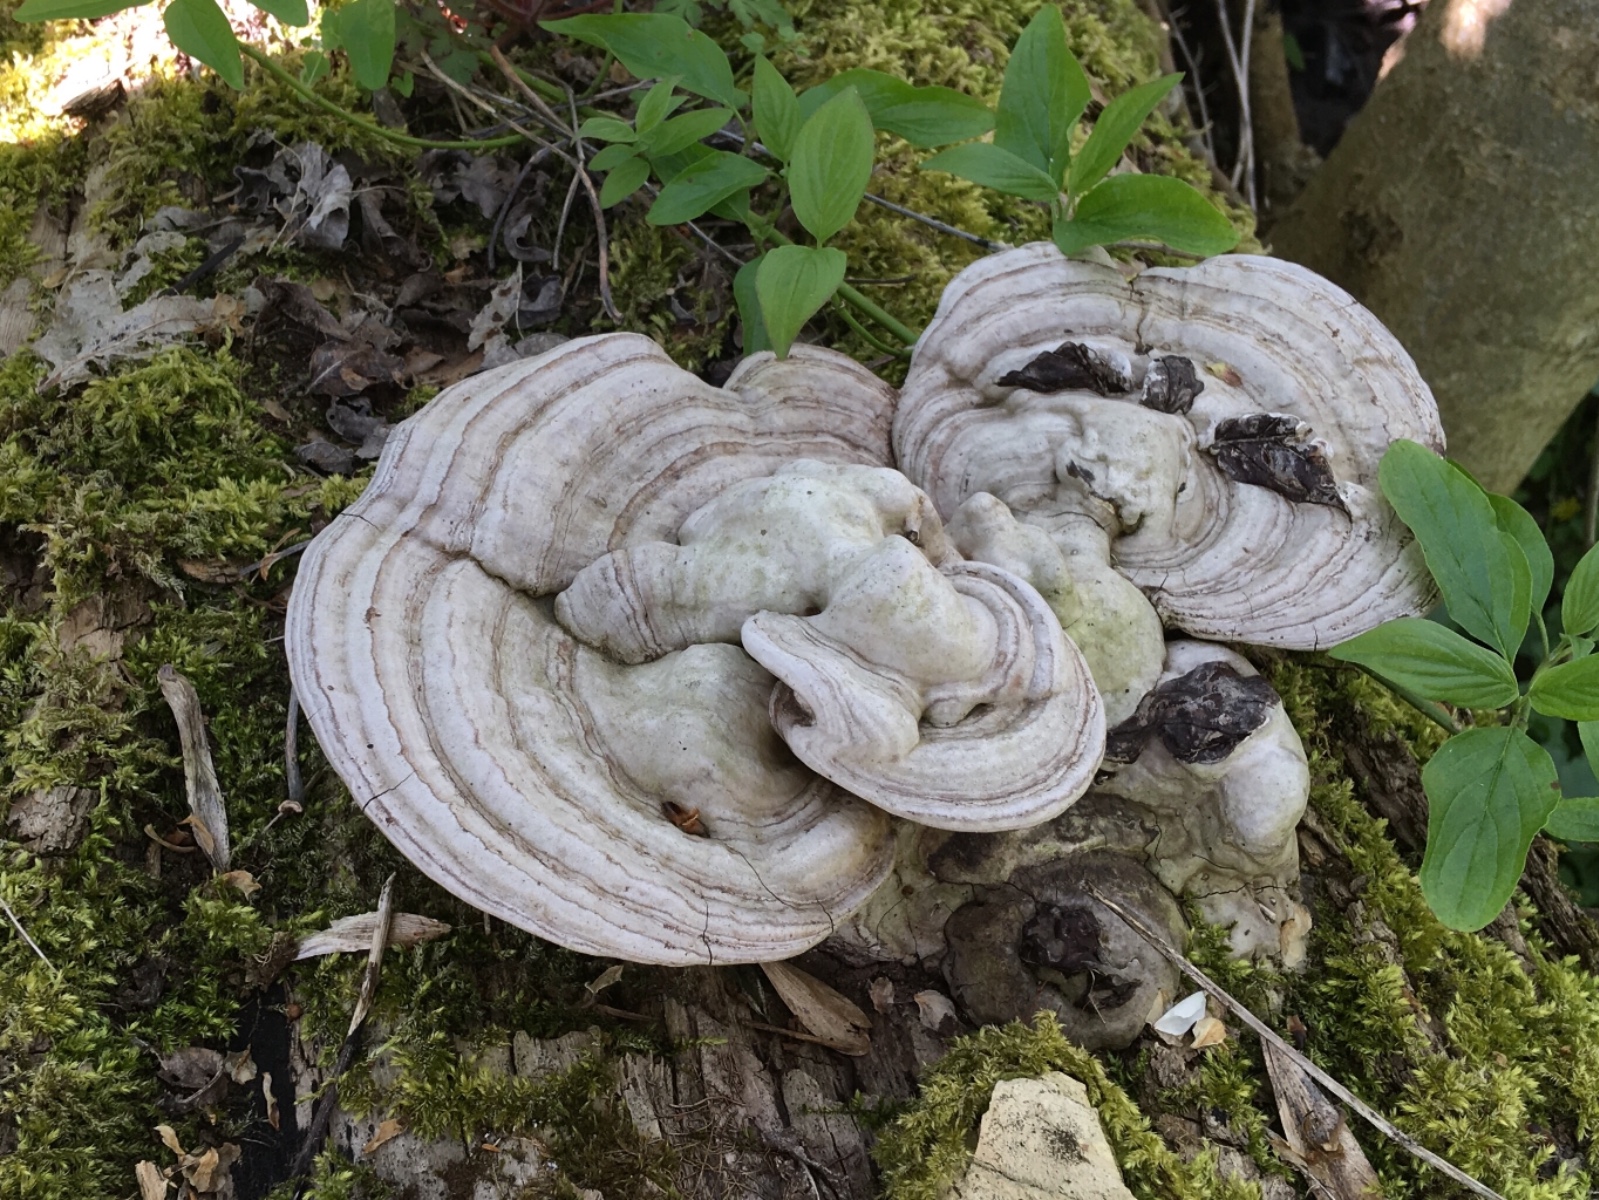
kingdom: Fungi
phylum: Basidiomycota
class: Agaricomycetes
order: Polyporales
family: Polyporaceae
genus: Ganoderma
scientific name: Ganoderma applanatum
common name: flad lakporesvamp
